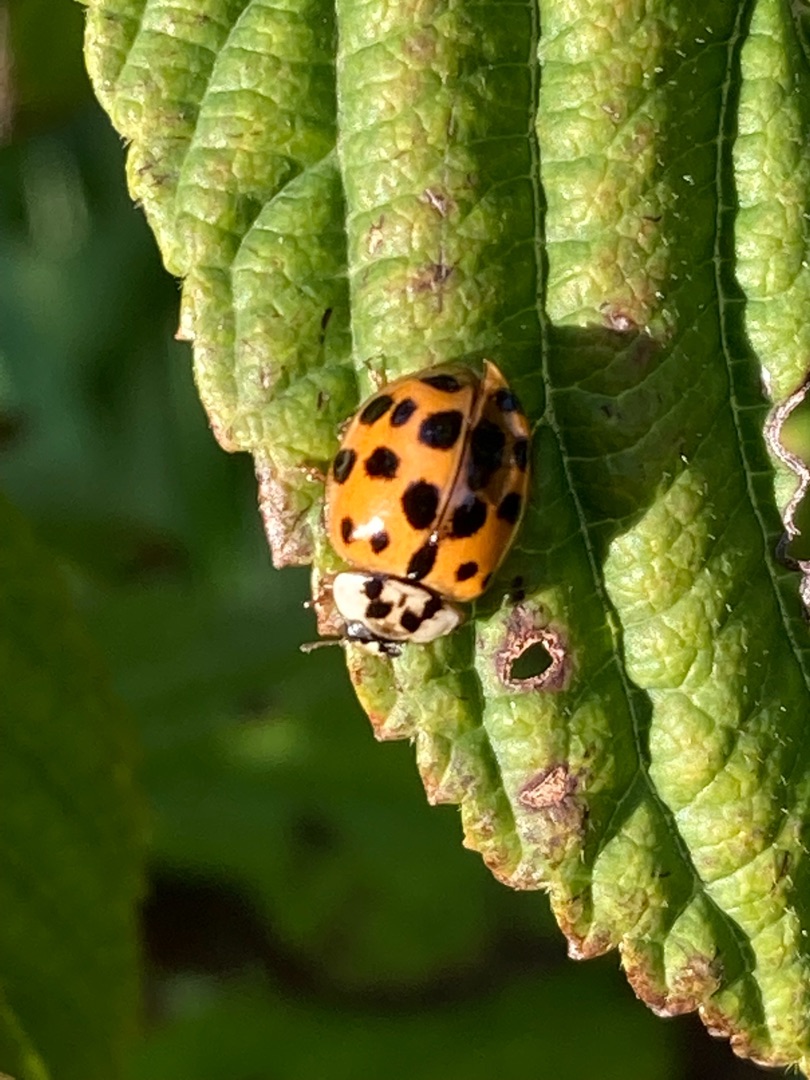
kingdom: Animalia
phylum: Arthropoda
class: Insecta
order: Coleoptera
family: Coccinellidae
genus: Harmonia
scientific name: Harmonia axyridis
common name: Harlekinmariehøne
